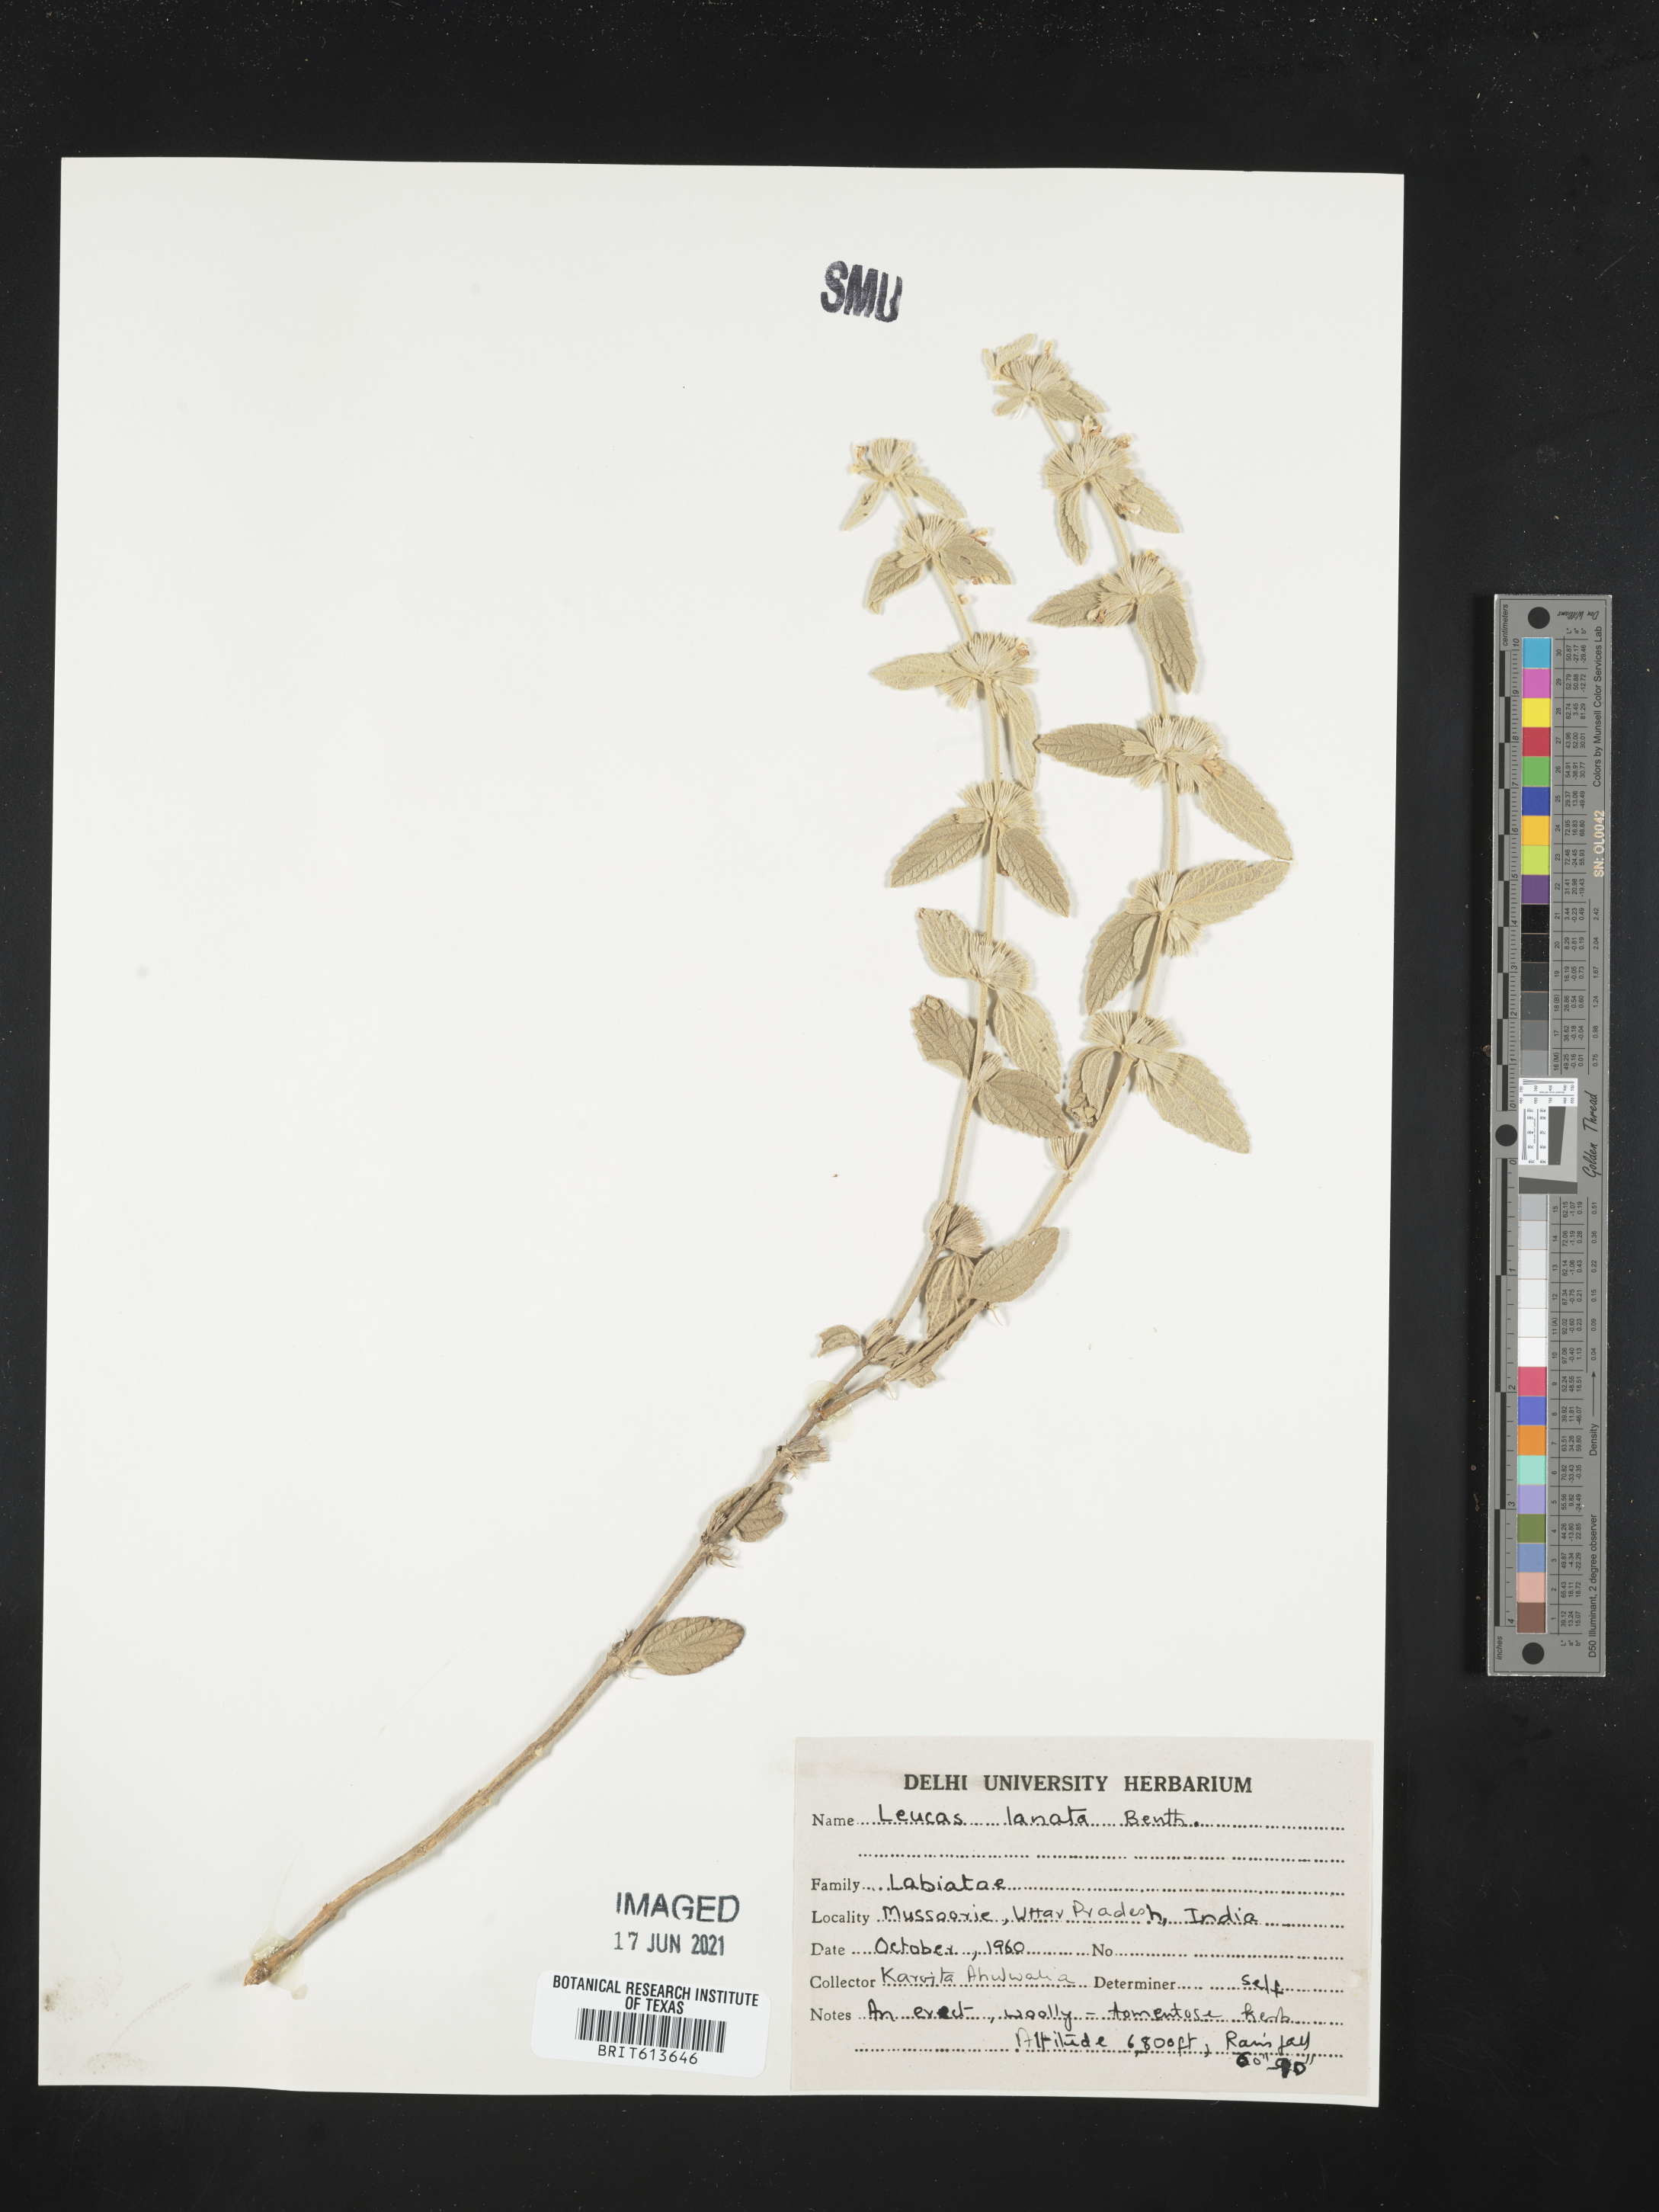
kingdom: Plantae
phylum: Tracheophyta
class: Magnoliopsida
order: Lamiales
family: Lamiaceae
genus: Leucas
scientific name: Leucas lanata
